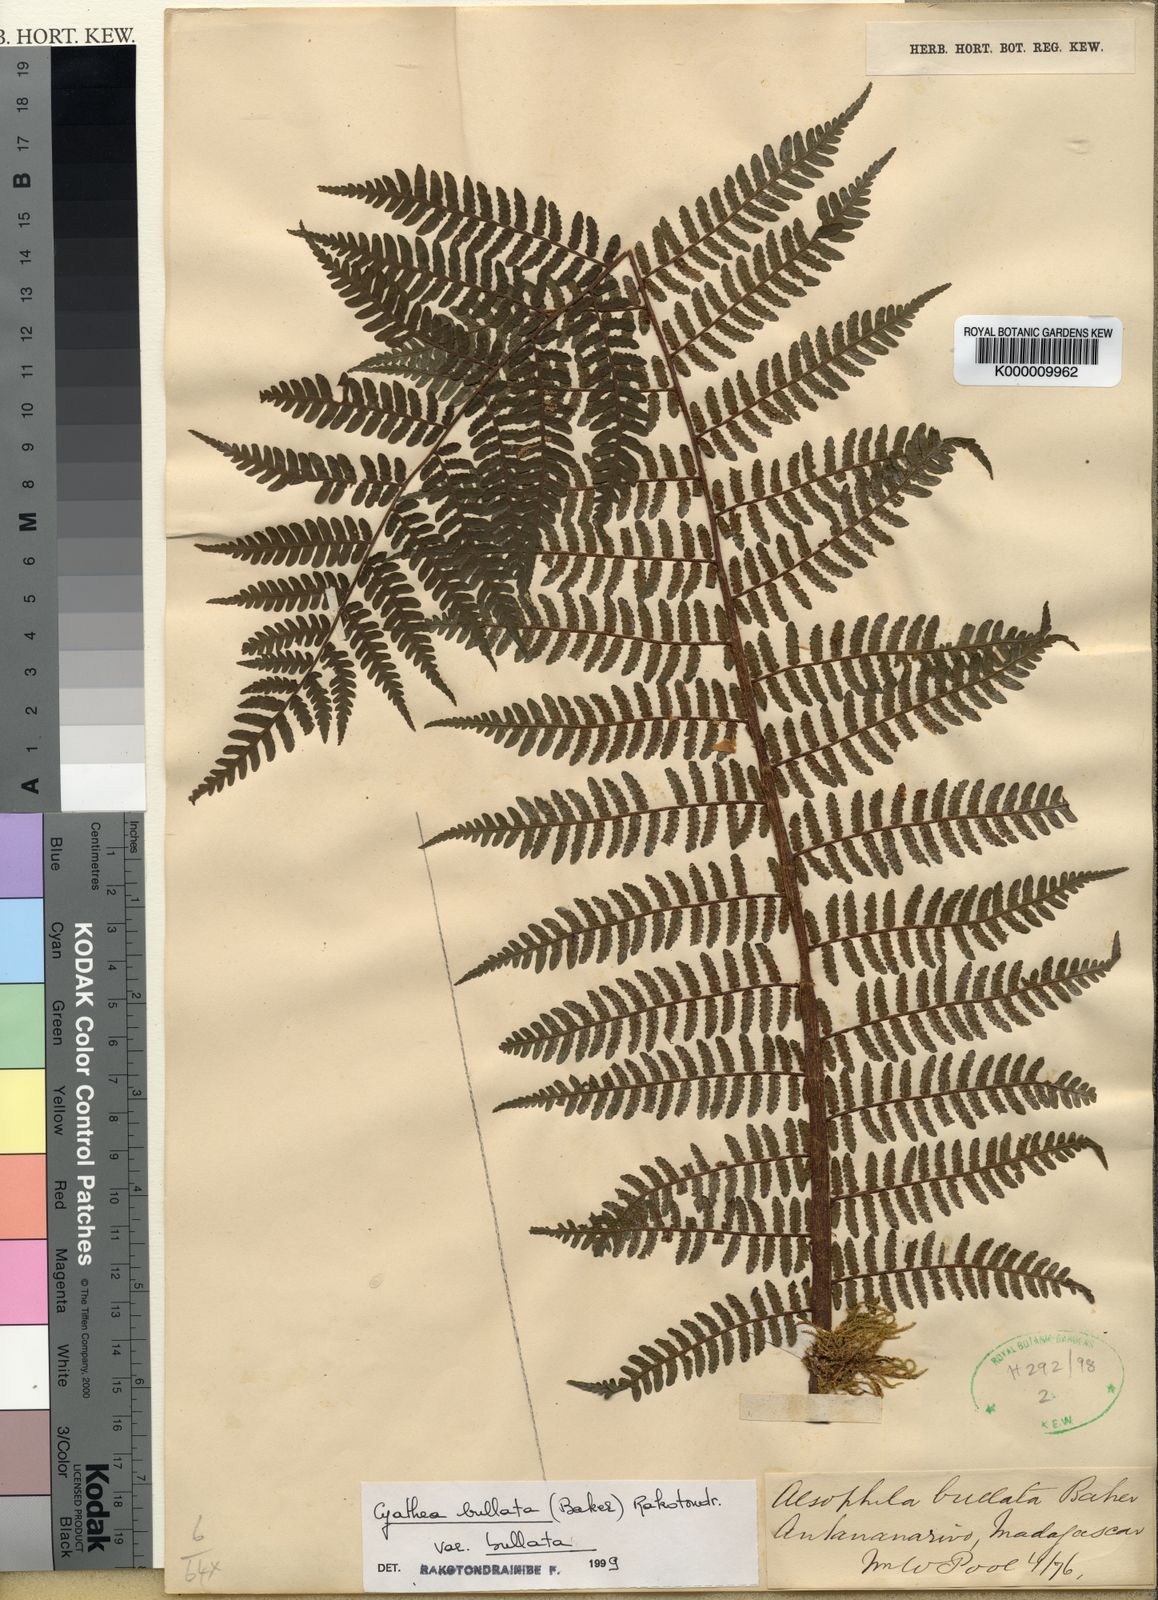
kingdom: Plantae
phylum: Tracheophyta
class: Polypodiopsida
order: Cyatheales
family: Cyatheaceae
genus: Gymnosphaera
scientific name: Gymnosphaera boivinii
